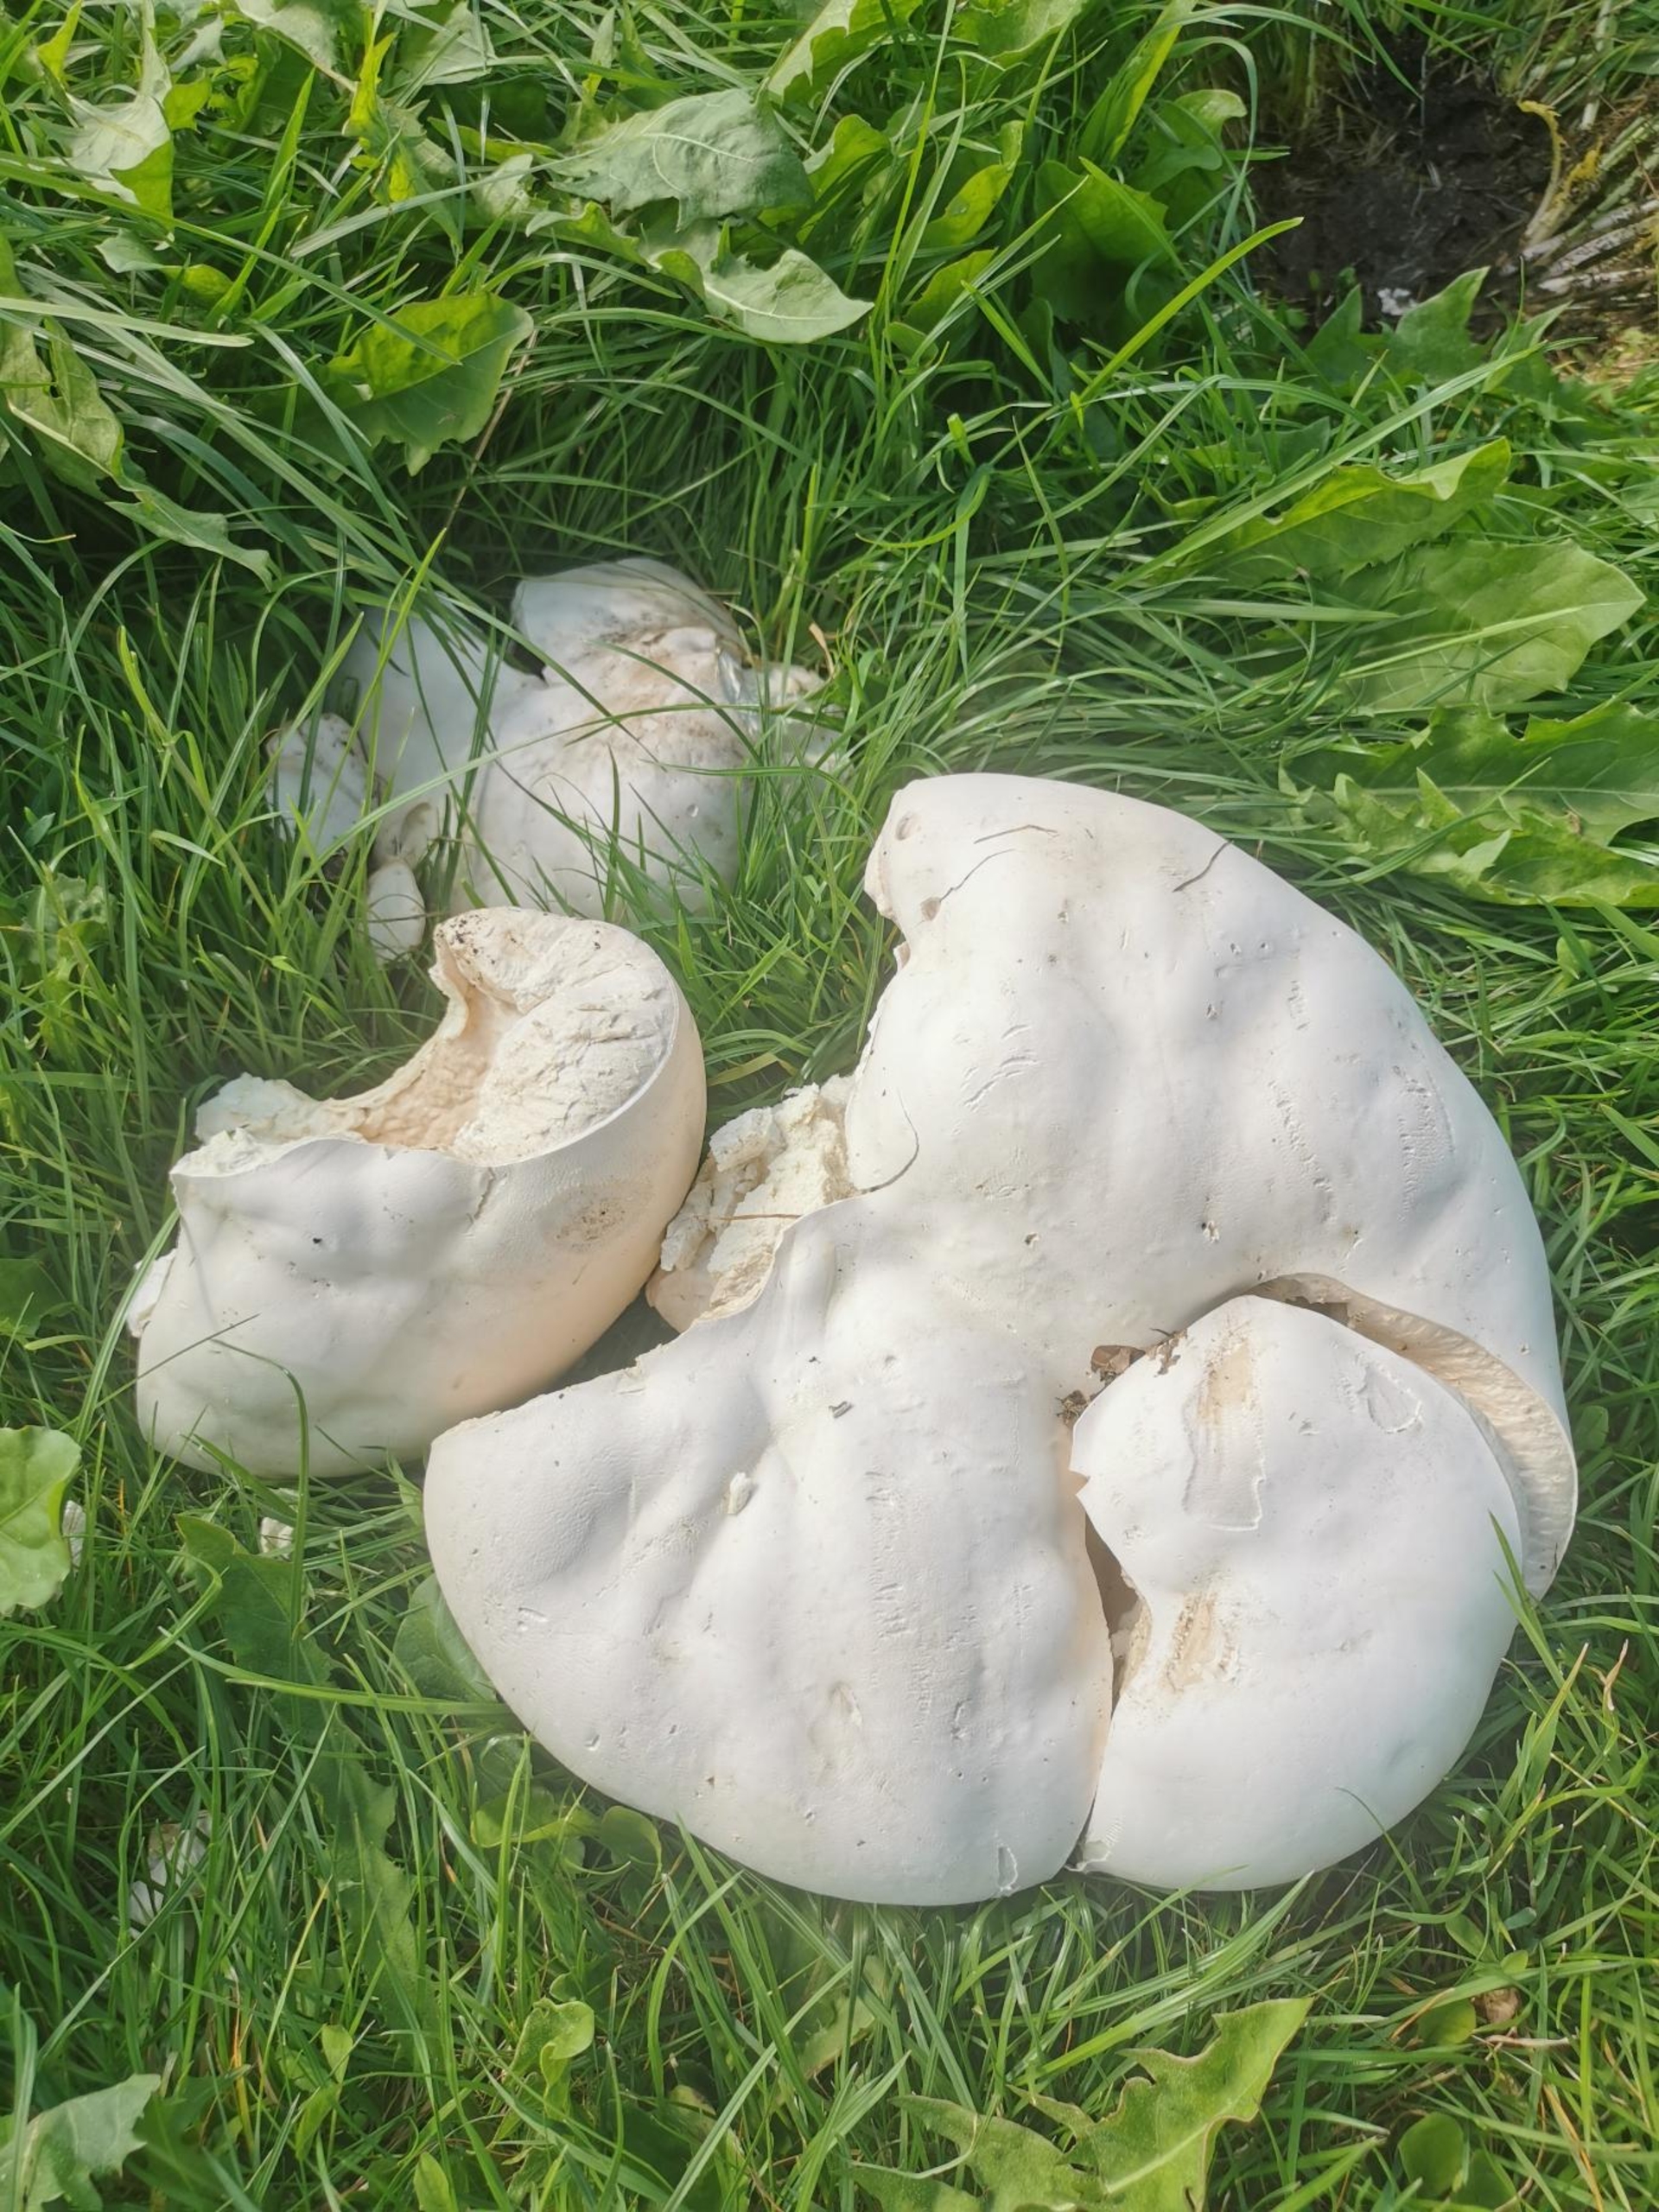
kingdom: Fungi
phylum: Basidiomycota
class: Agaricomycetes
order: Agaricales
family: Lycoperdaceae
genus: Calvatia
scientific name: Calvatia gigantea
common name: Kæmpestøvbold
